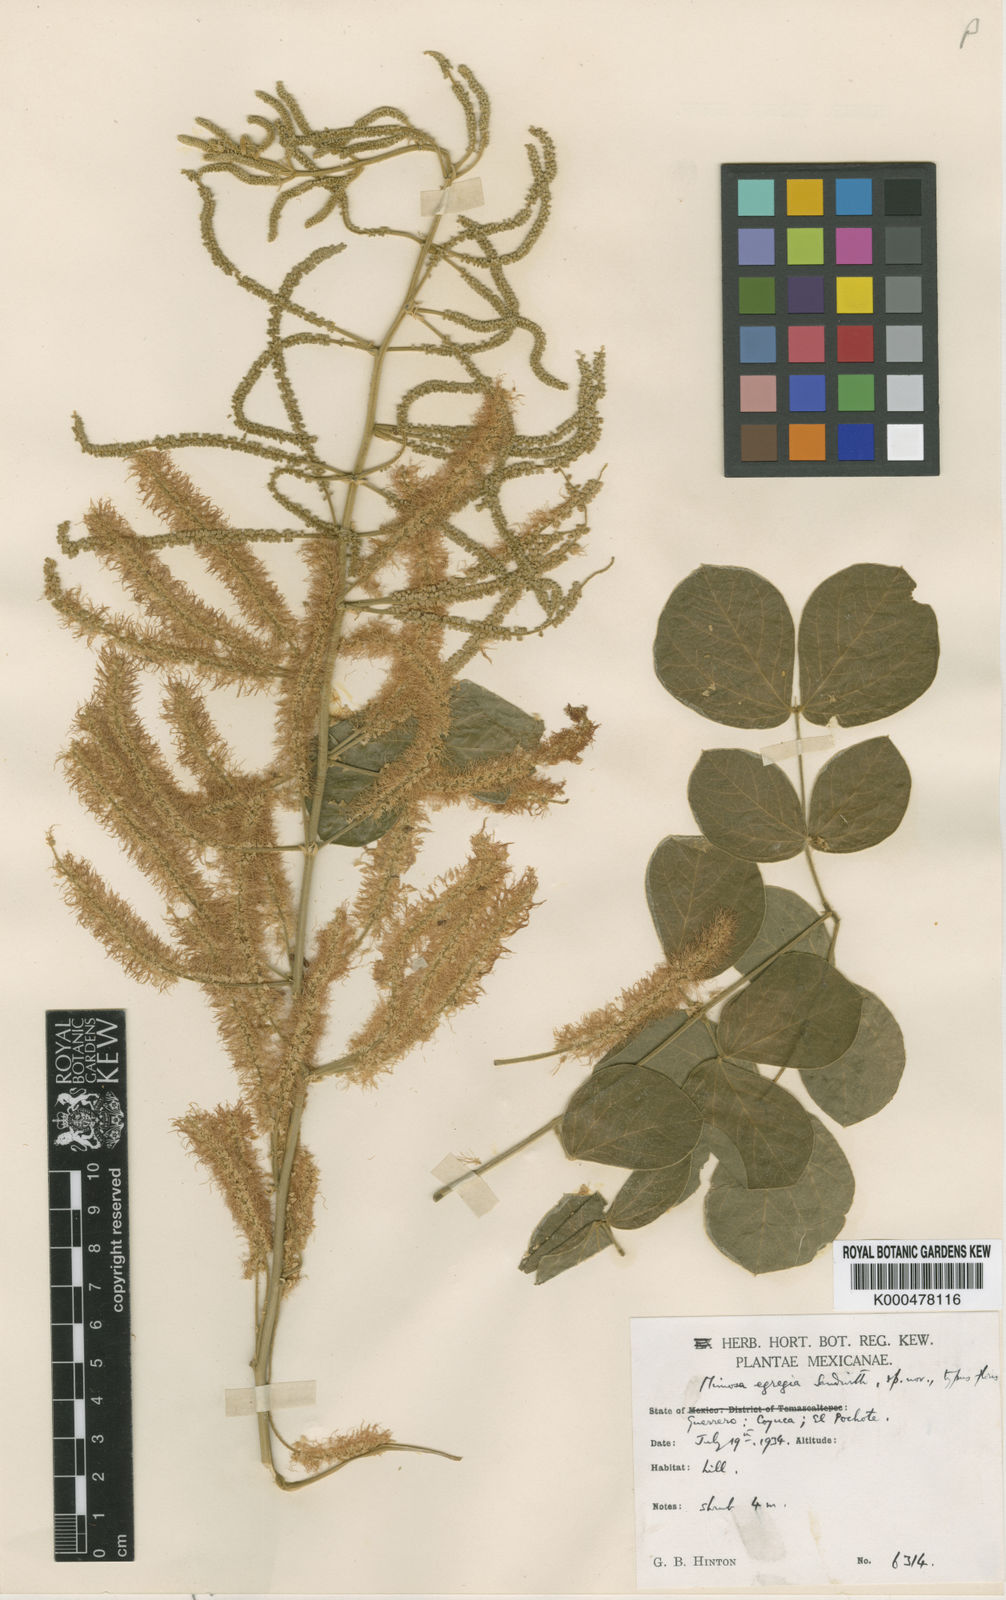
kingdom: Plantae
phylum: Tracheophyta
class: Magnoliopsida
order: Fabales
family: Fabaceae
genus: Mimosa
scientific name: Mimosa egregia
